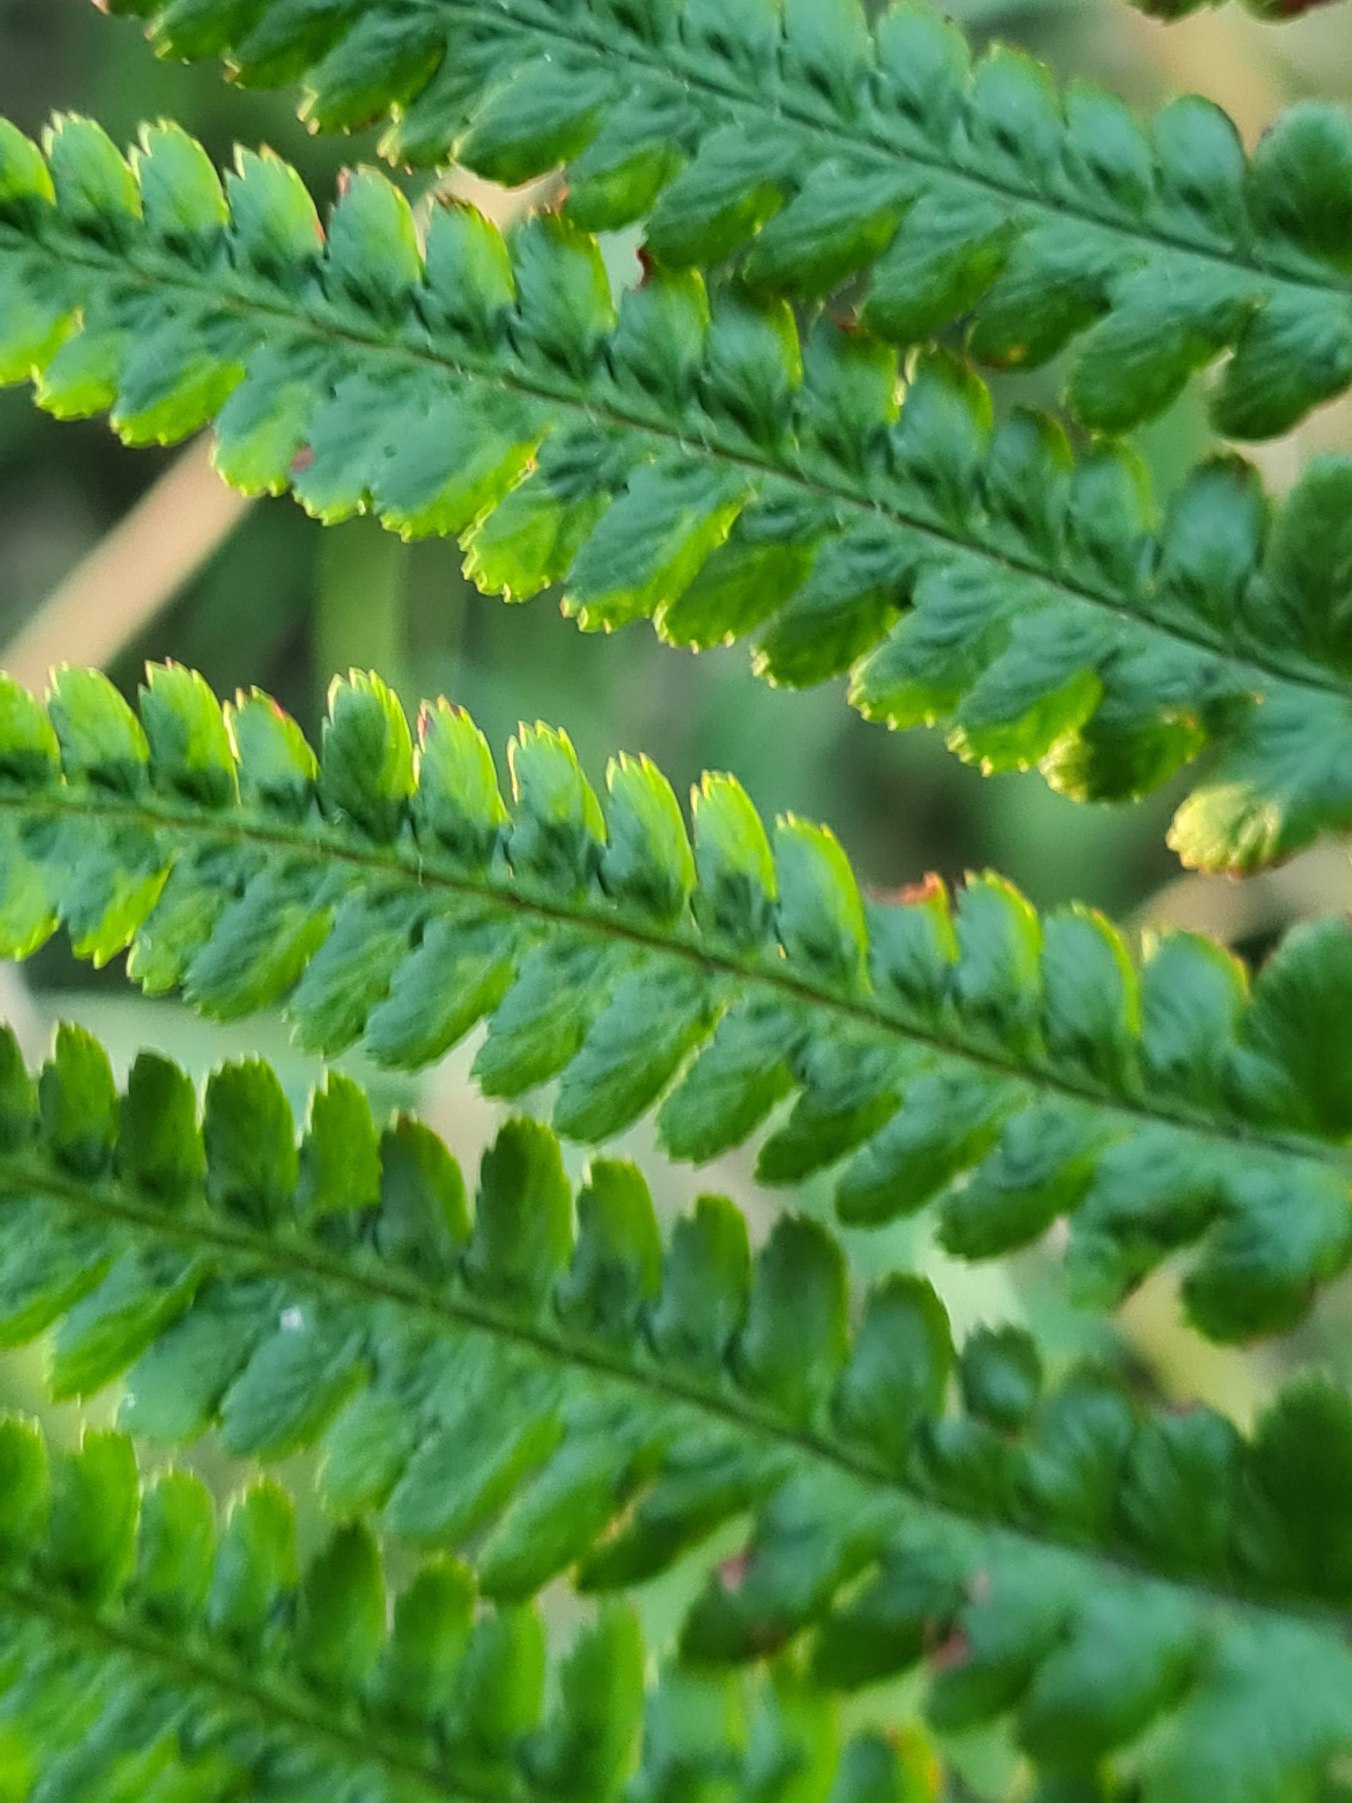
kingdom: Plantae
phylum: Tracheophyta
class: Polypodiopsida
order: Polypodiales
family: Dryopteridaceae
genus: Dryopteris
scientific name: Dryopteris filix-mas
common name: Almindelig mangeløv
